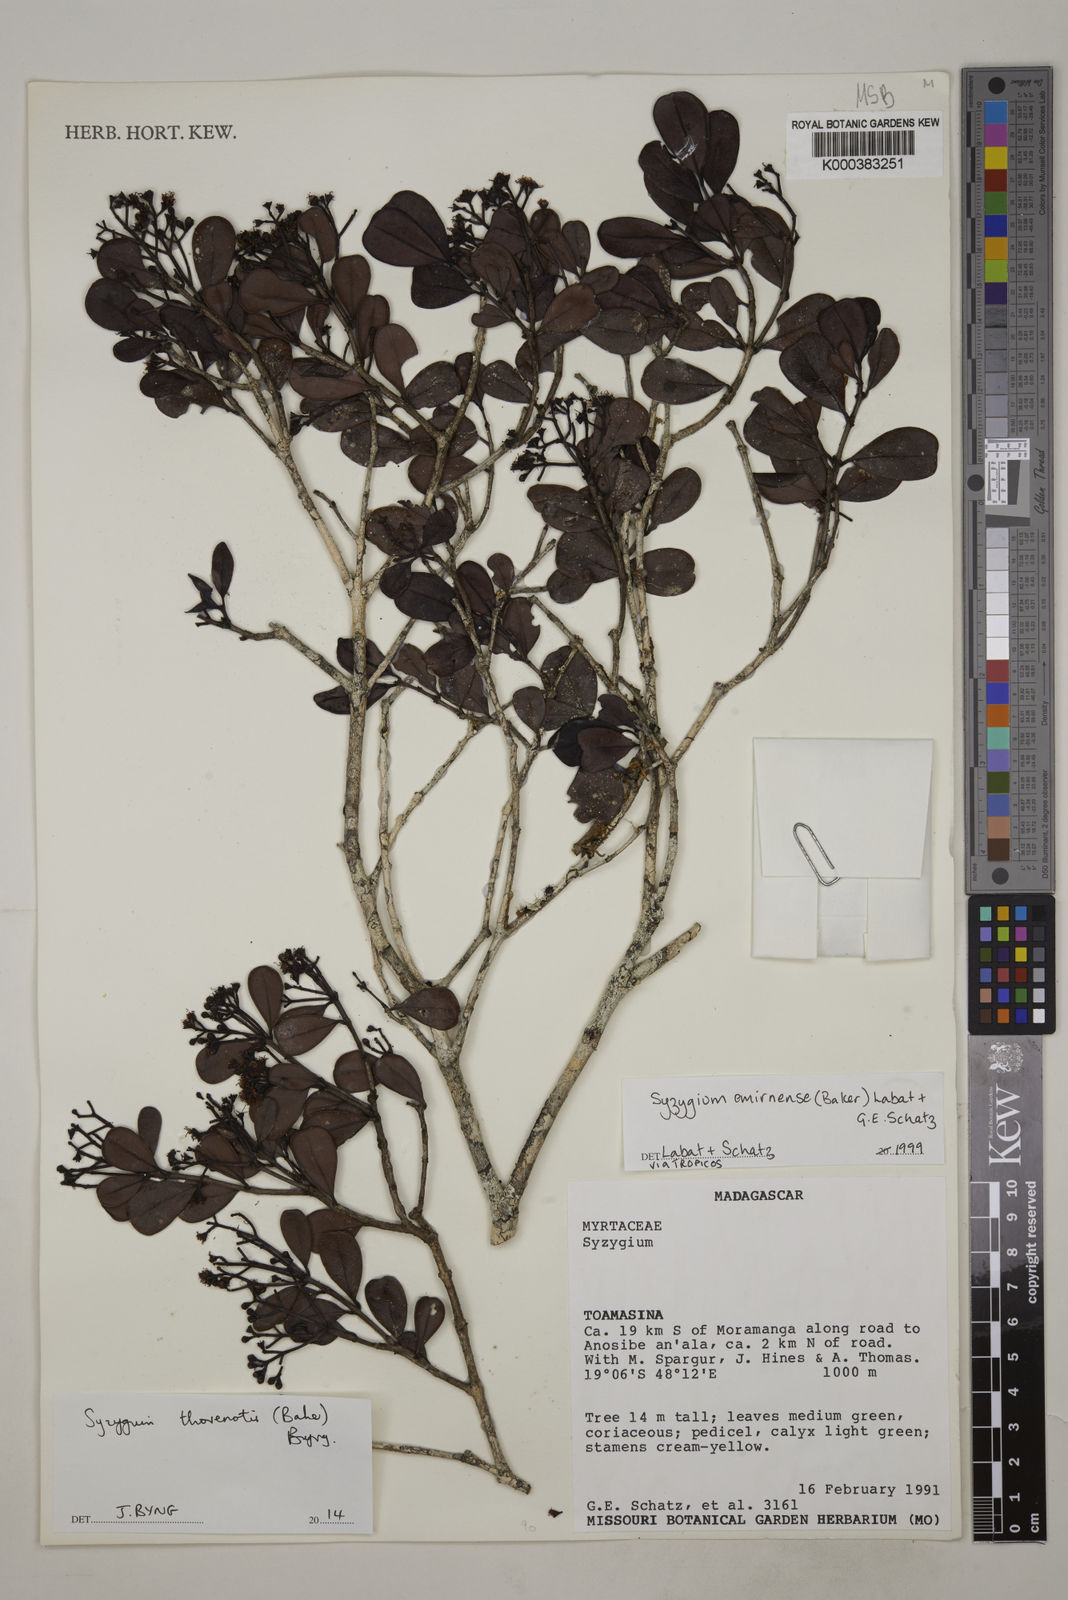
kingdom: Plantae
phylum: Tracheophyta
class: Magnoliopsida
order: Myrtales
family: Myrtaceae
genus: Syzygium
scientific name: Syzygium emirnense
